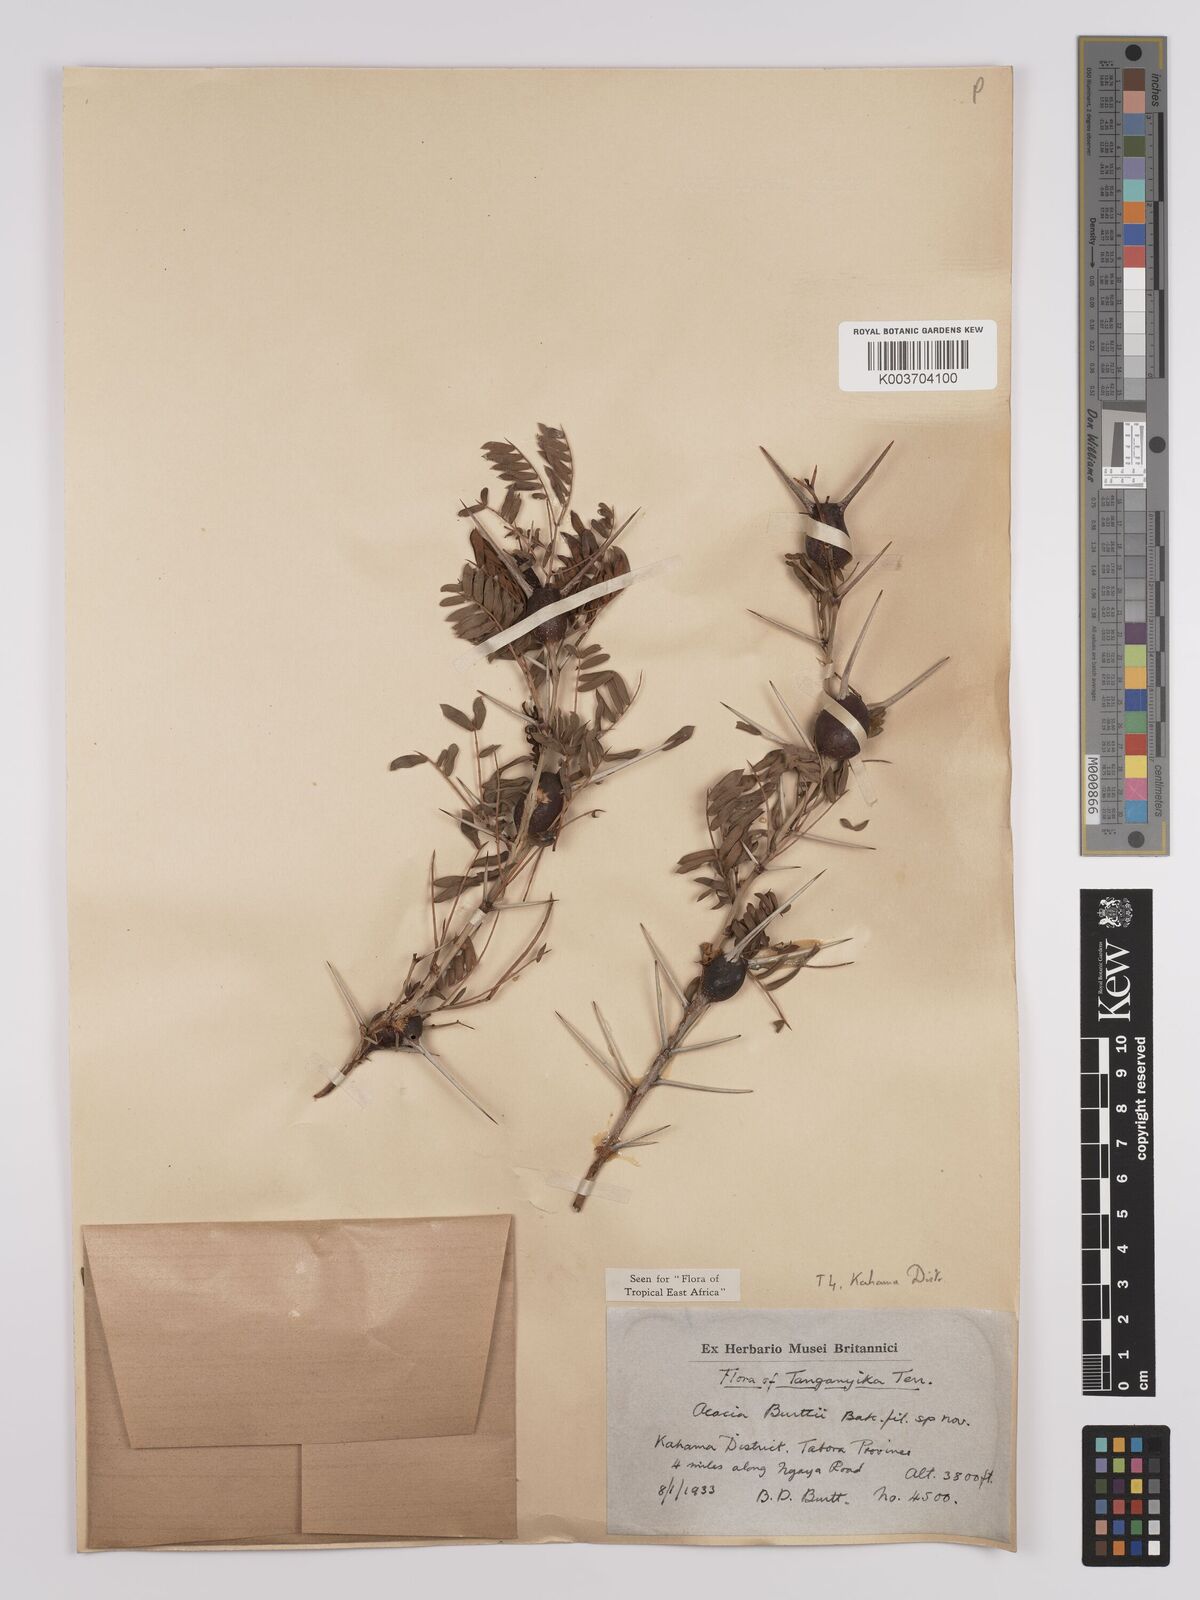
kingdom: Plantae
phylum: Tracheophyta
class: Magnoliopsida
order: Fabales
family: Fabaceae
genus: Vachellia
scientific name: Vachellia burttii
